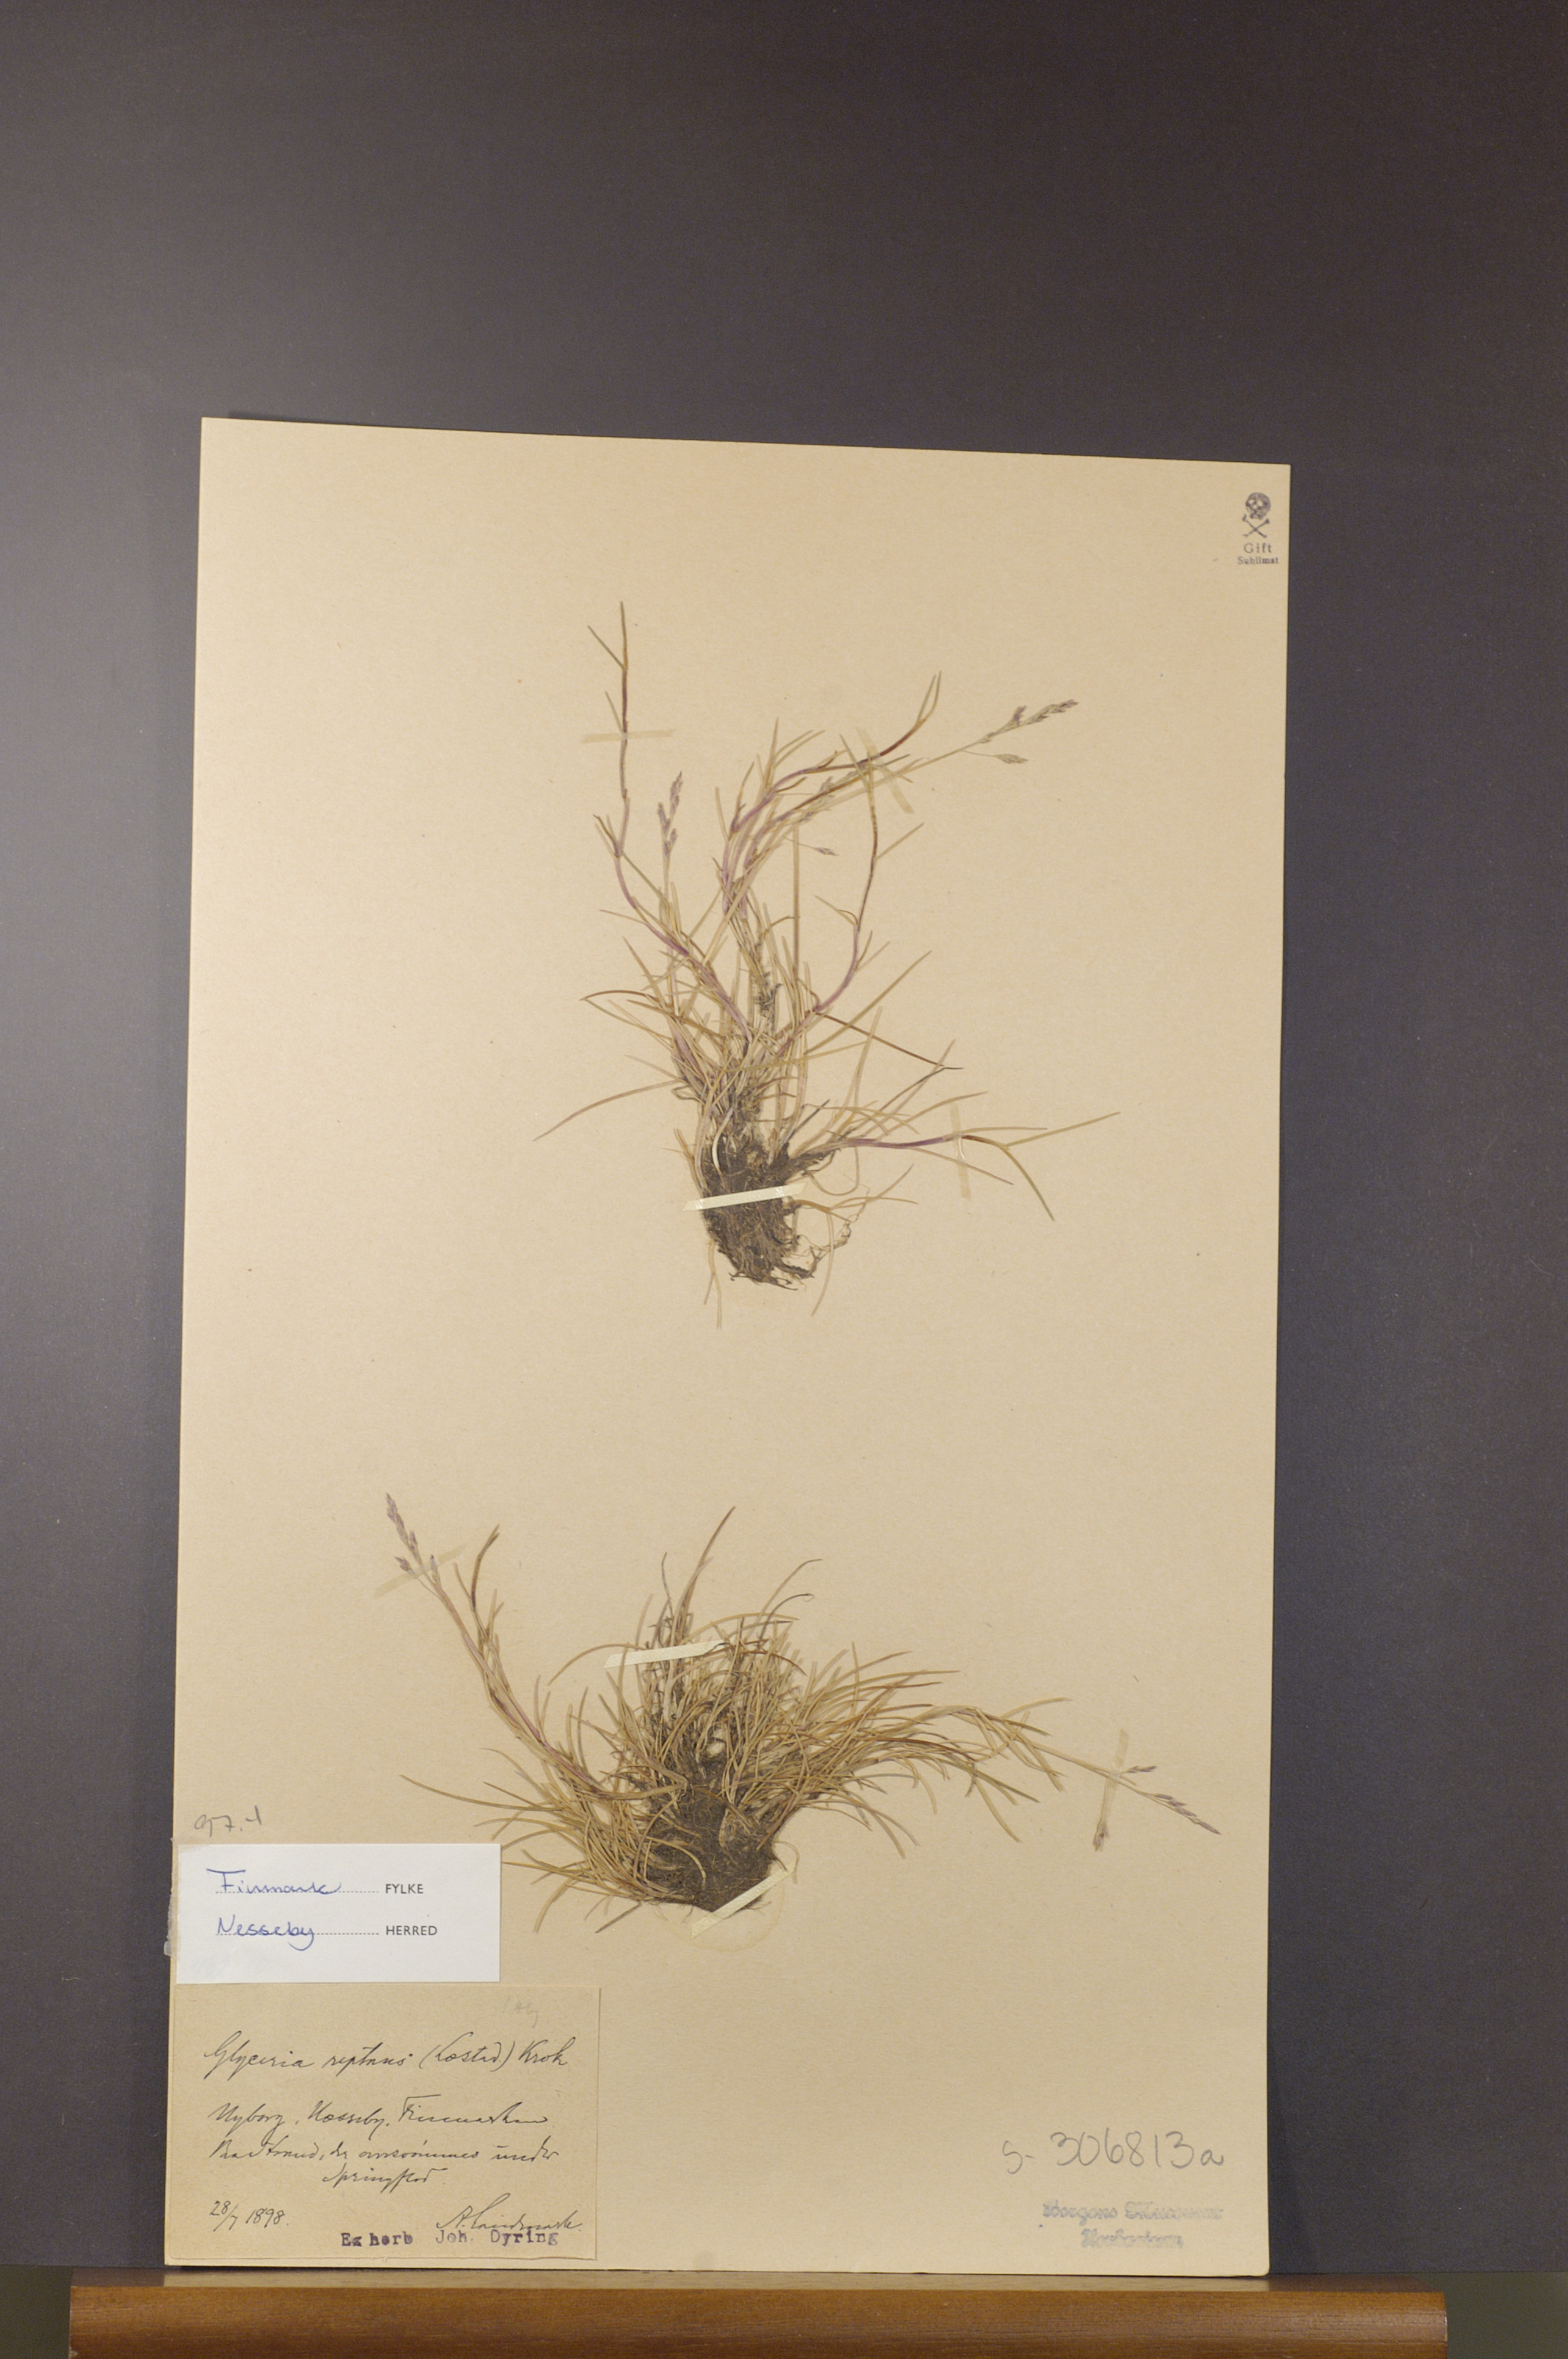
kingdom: Plantae
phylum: Tracheophyta
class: Liliopsida
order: Poales
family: Poaceae
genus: Puccinellia
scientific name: Puccinellia phryganodes
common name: Creeping alkaligrass
